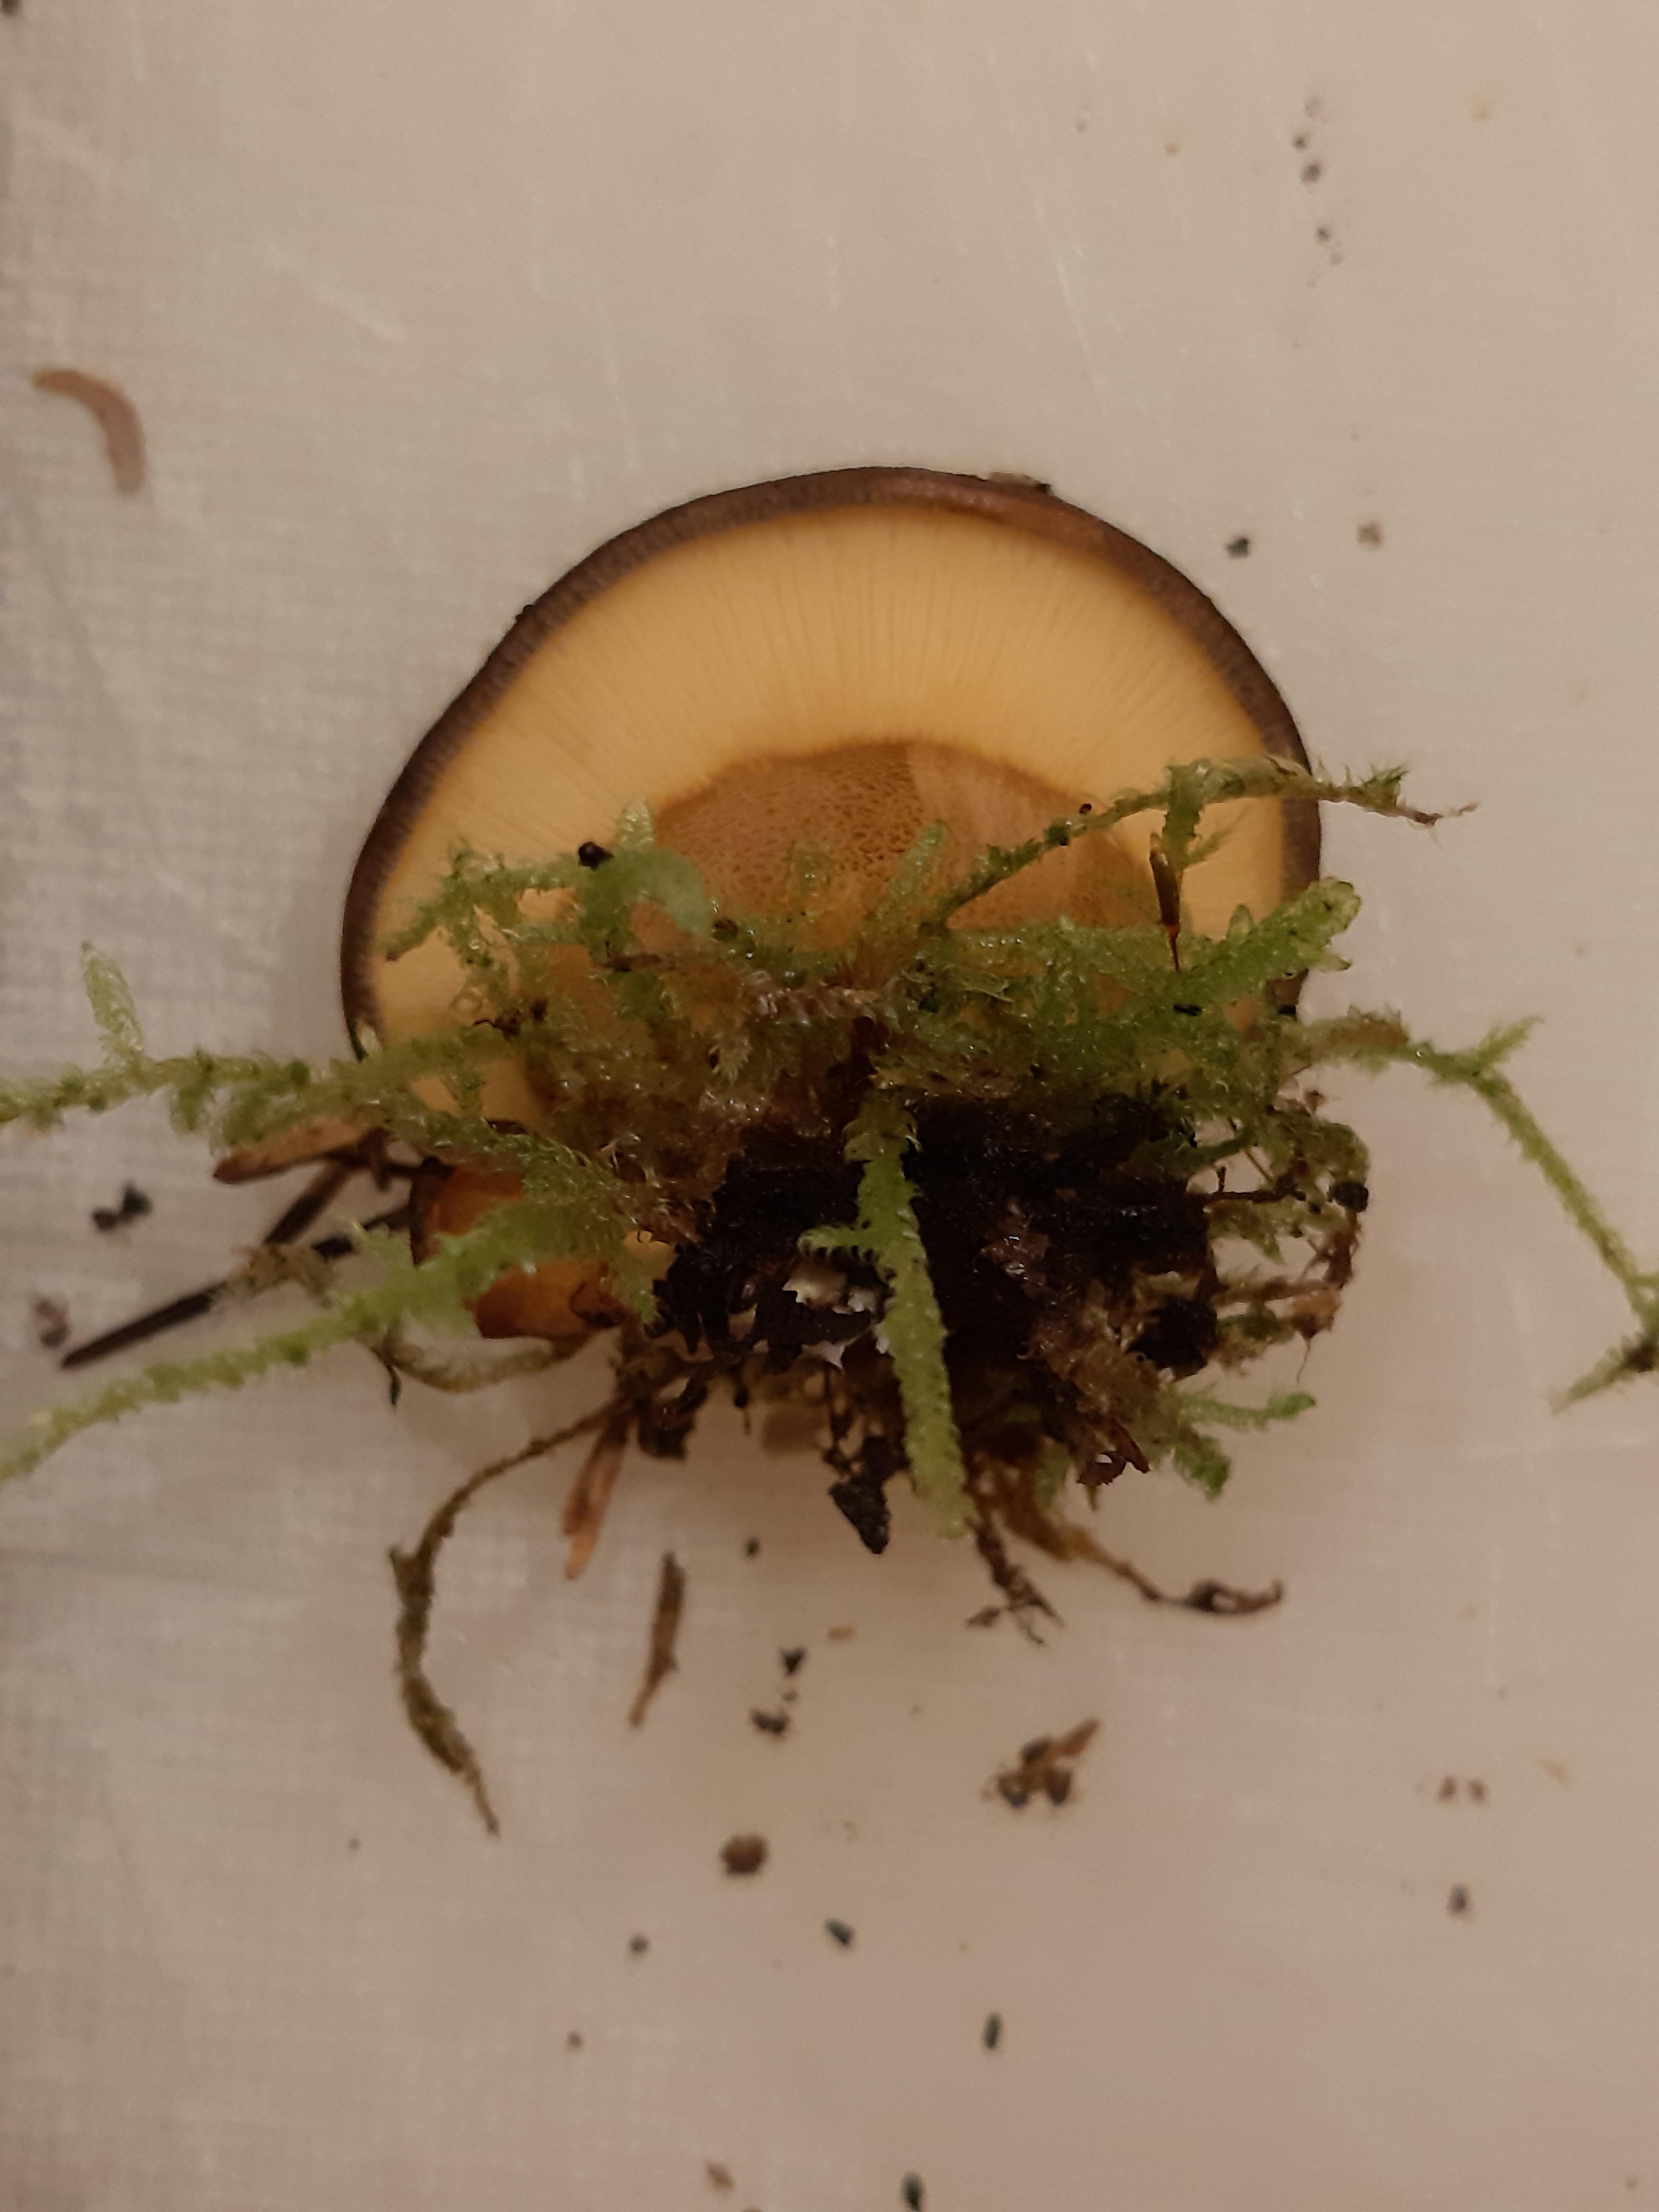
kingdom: Fungi
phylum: Basidiomycota
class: Agaricomycetes
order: Agaricales
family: Sarcomyxaceae
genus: Sarcomyxa
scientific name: Sarcomyxa serotina
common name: gummihat
